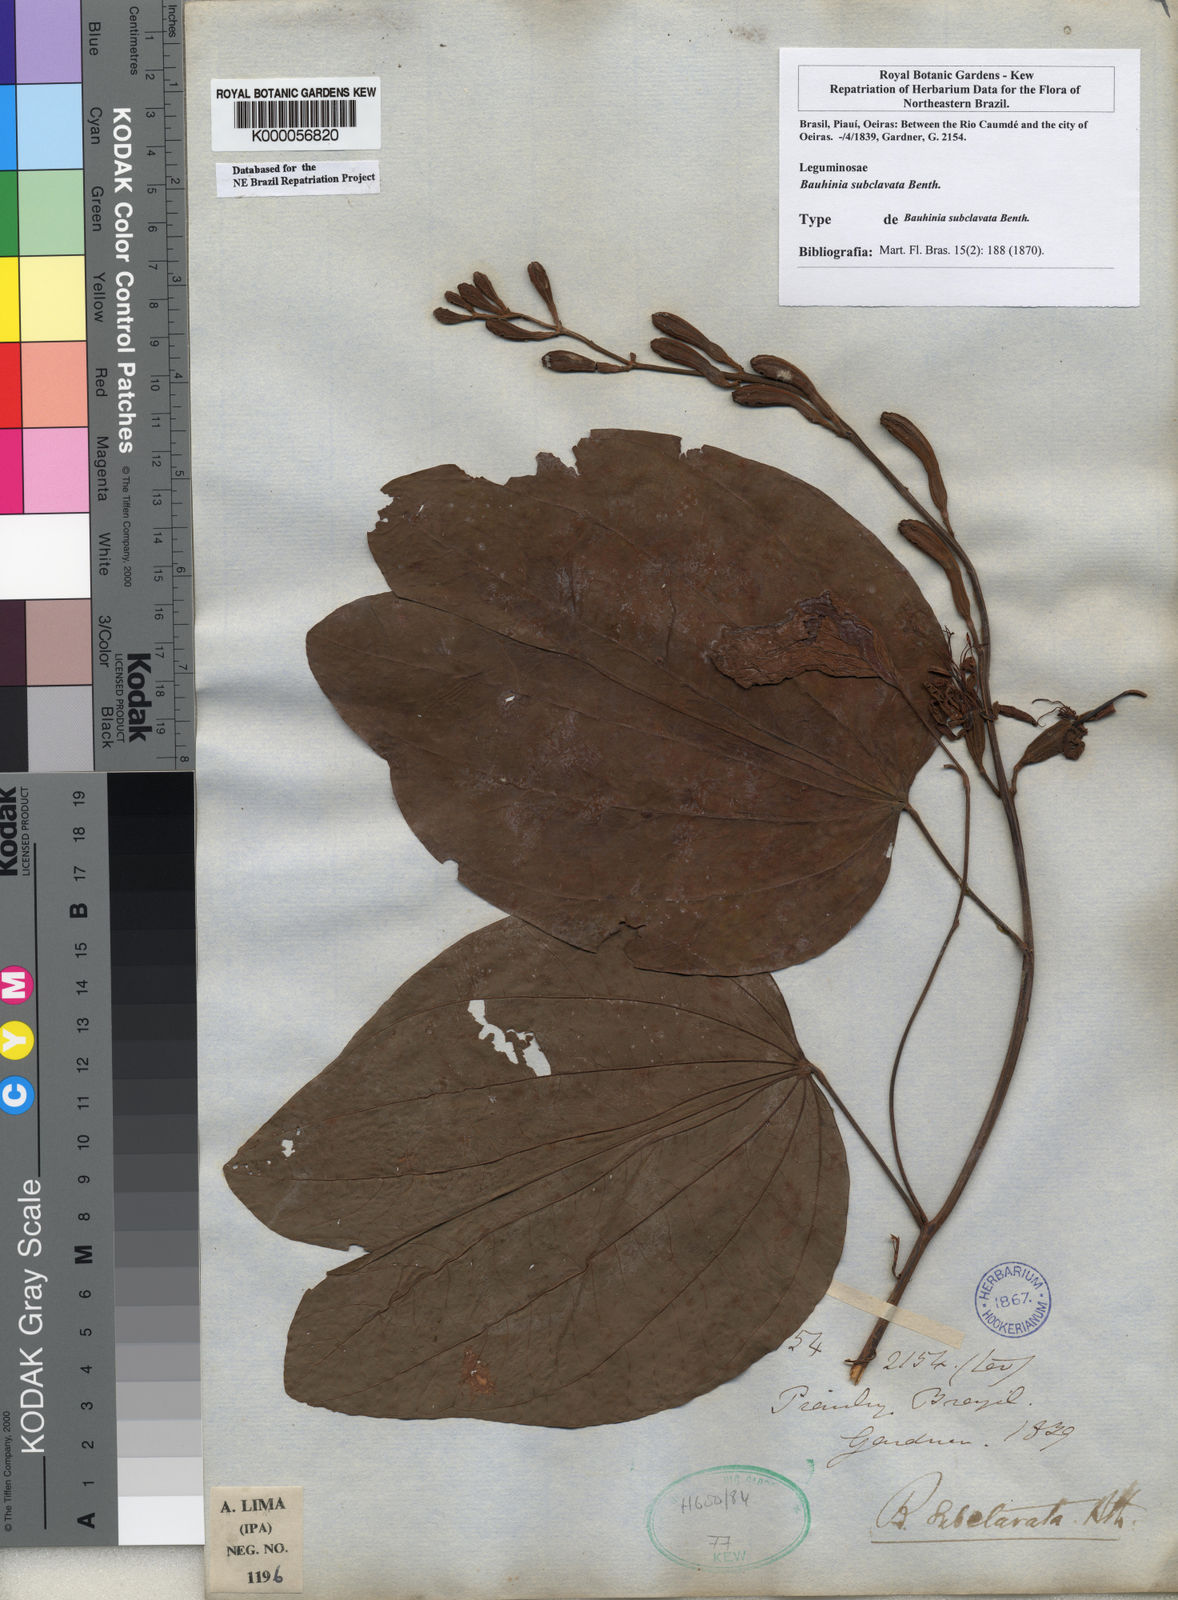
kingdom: Plantae
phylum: Tracheophyta
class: Magnoliopsida
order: Fabales
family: Fabaceae
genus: Bauhinia
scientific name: Bauhinia subclavata
